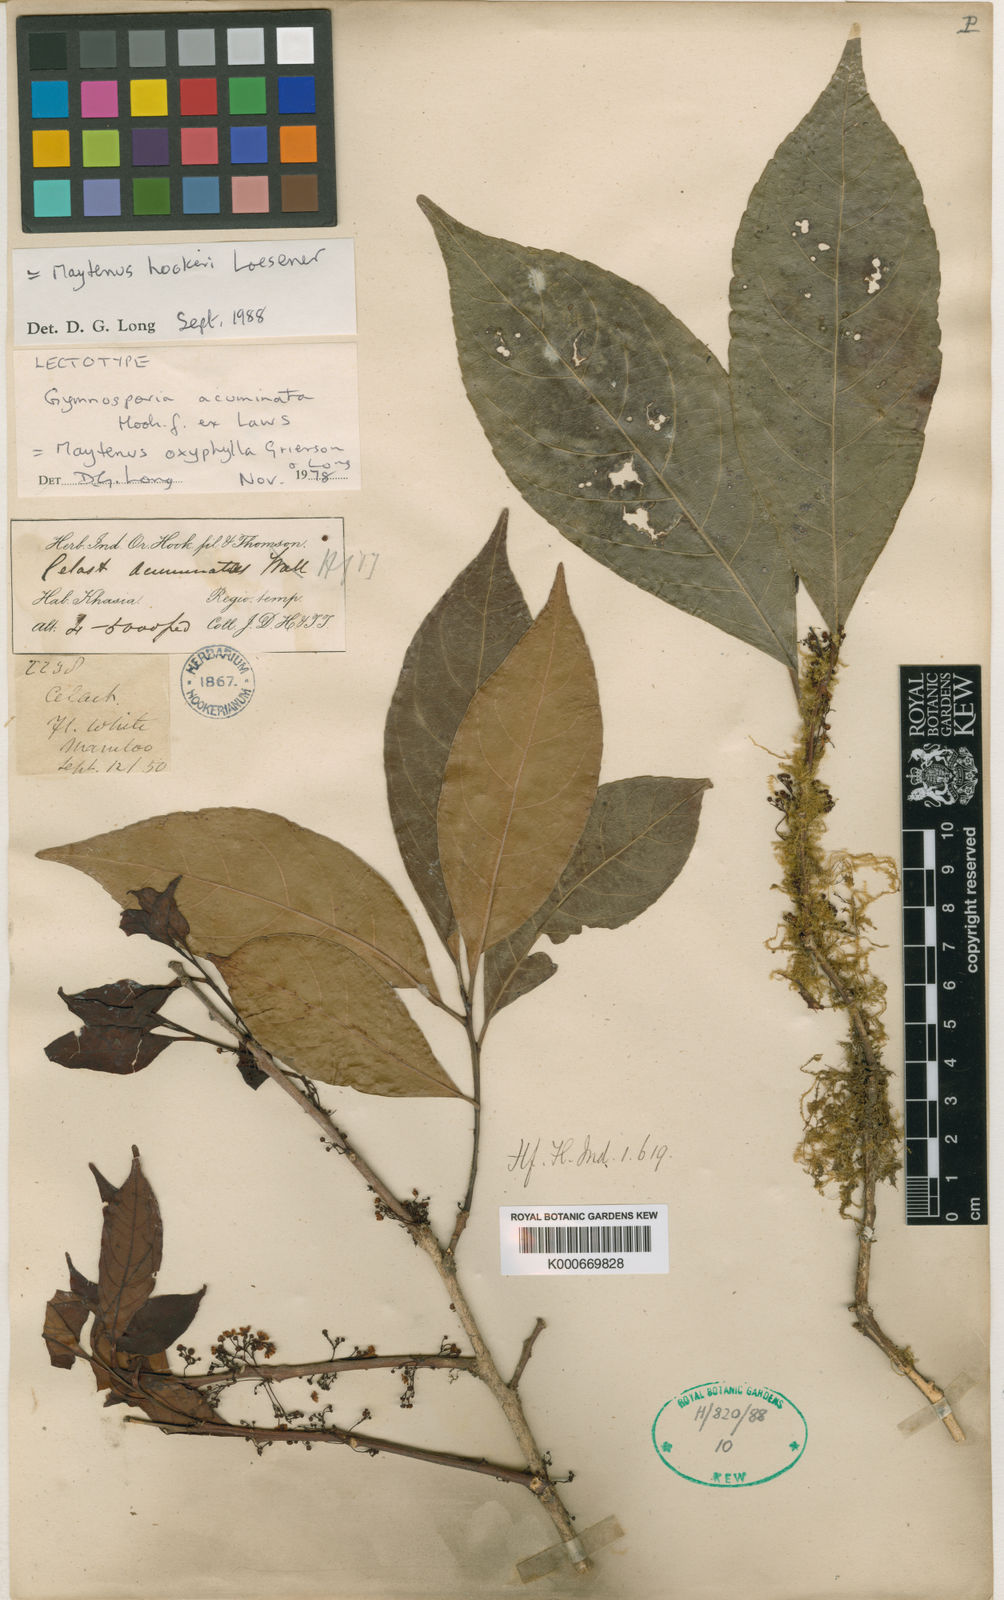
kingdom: Plantae
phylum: Tracheophyta
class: Magnoliopsida
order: Celastrales
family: Celastraceae
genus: Gymnosporia
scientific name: Gymnosporia oxyphylla
